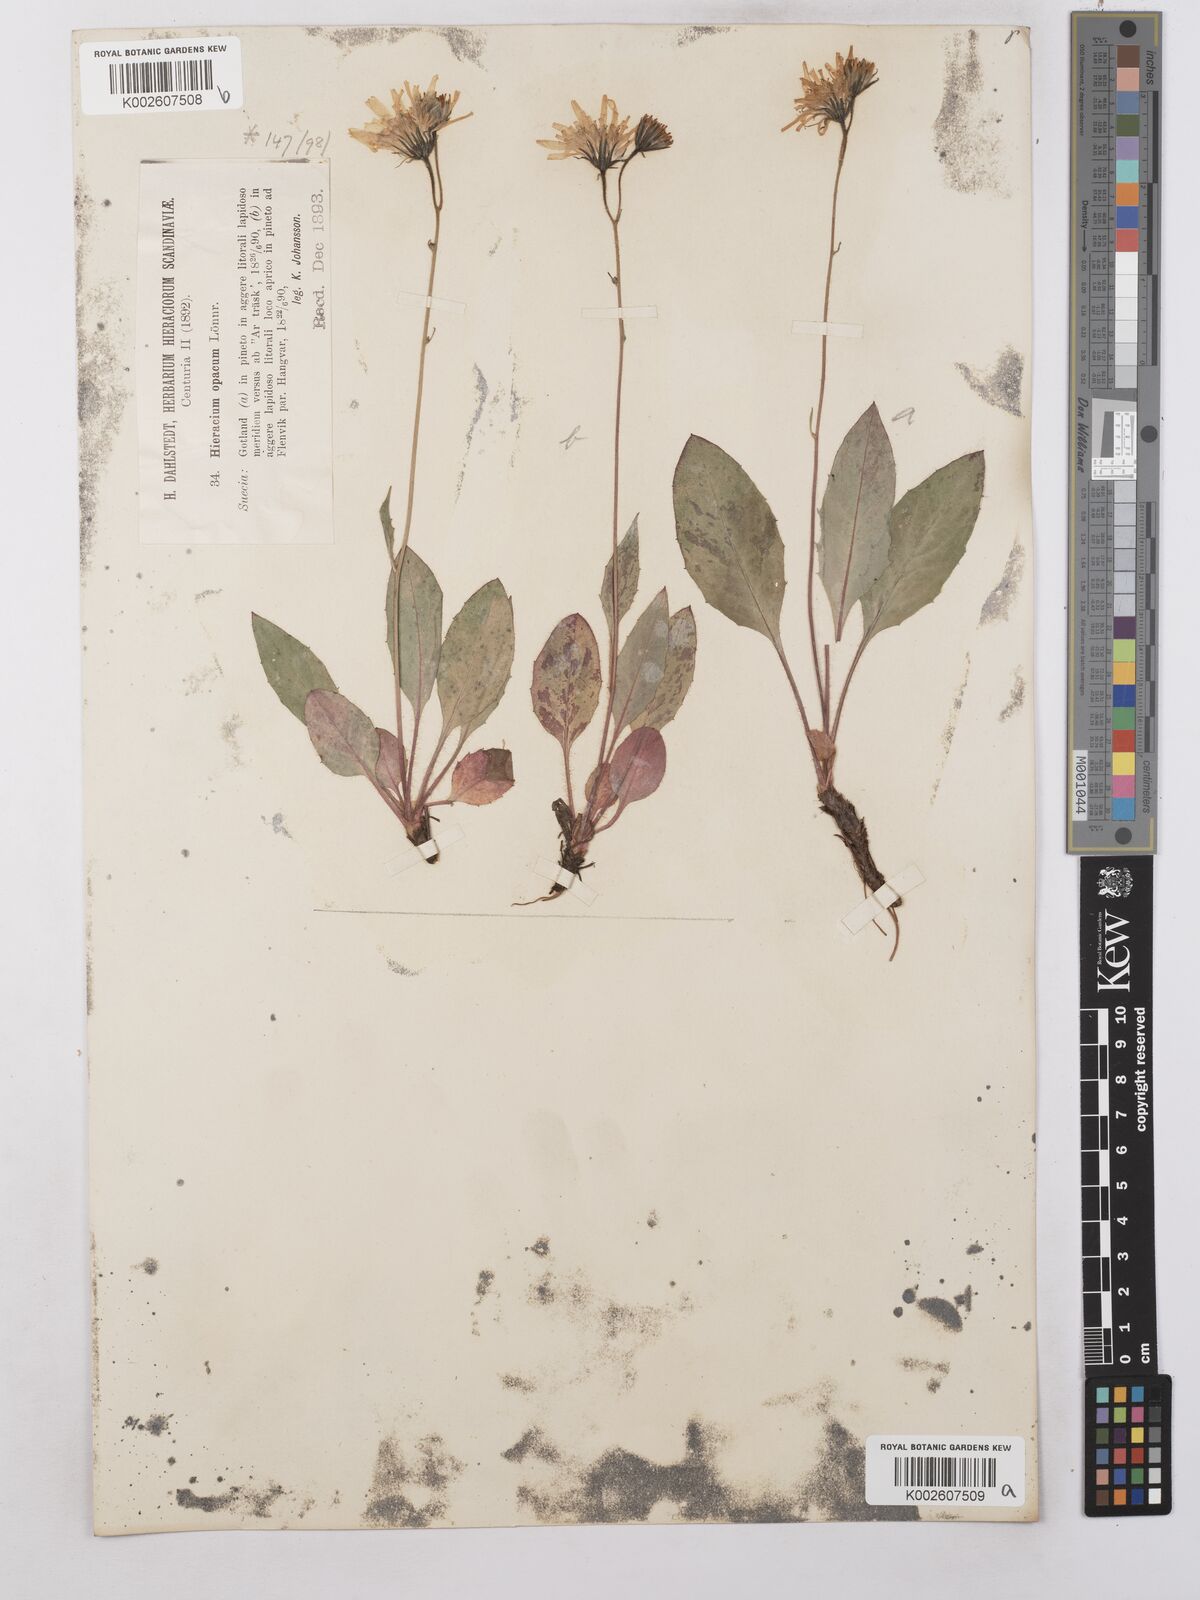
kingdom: Plantae
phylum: Tracheophyta
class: Magnoliopsida
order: Asterales
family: Asteraceae
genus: Hieracium
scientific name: Hieracium caesium
